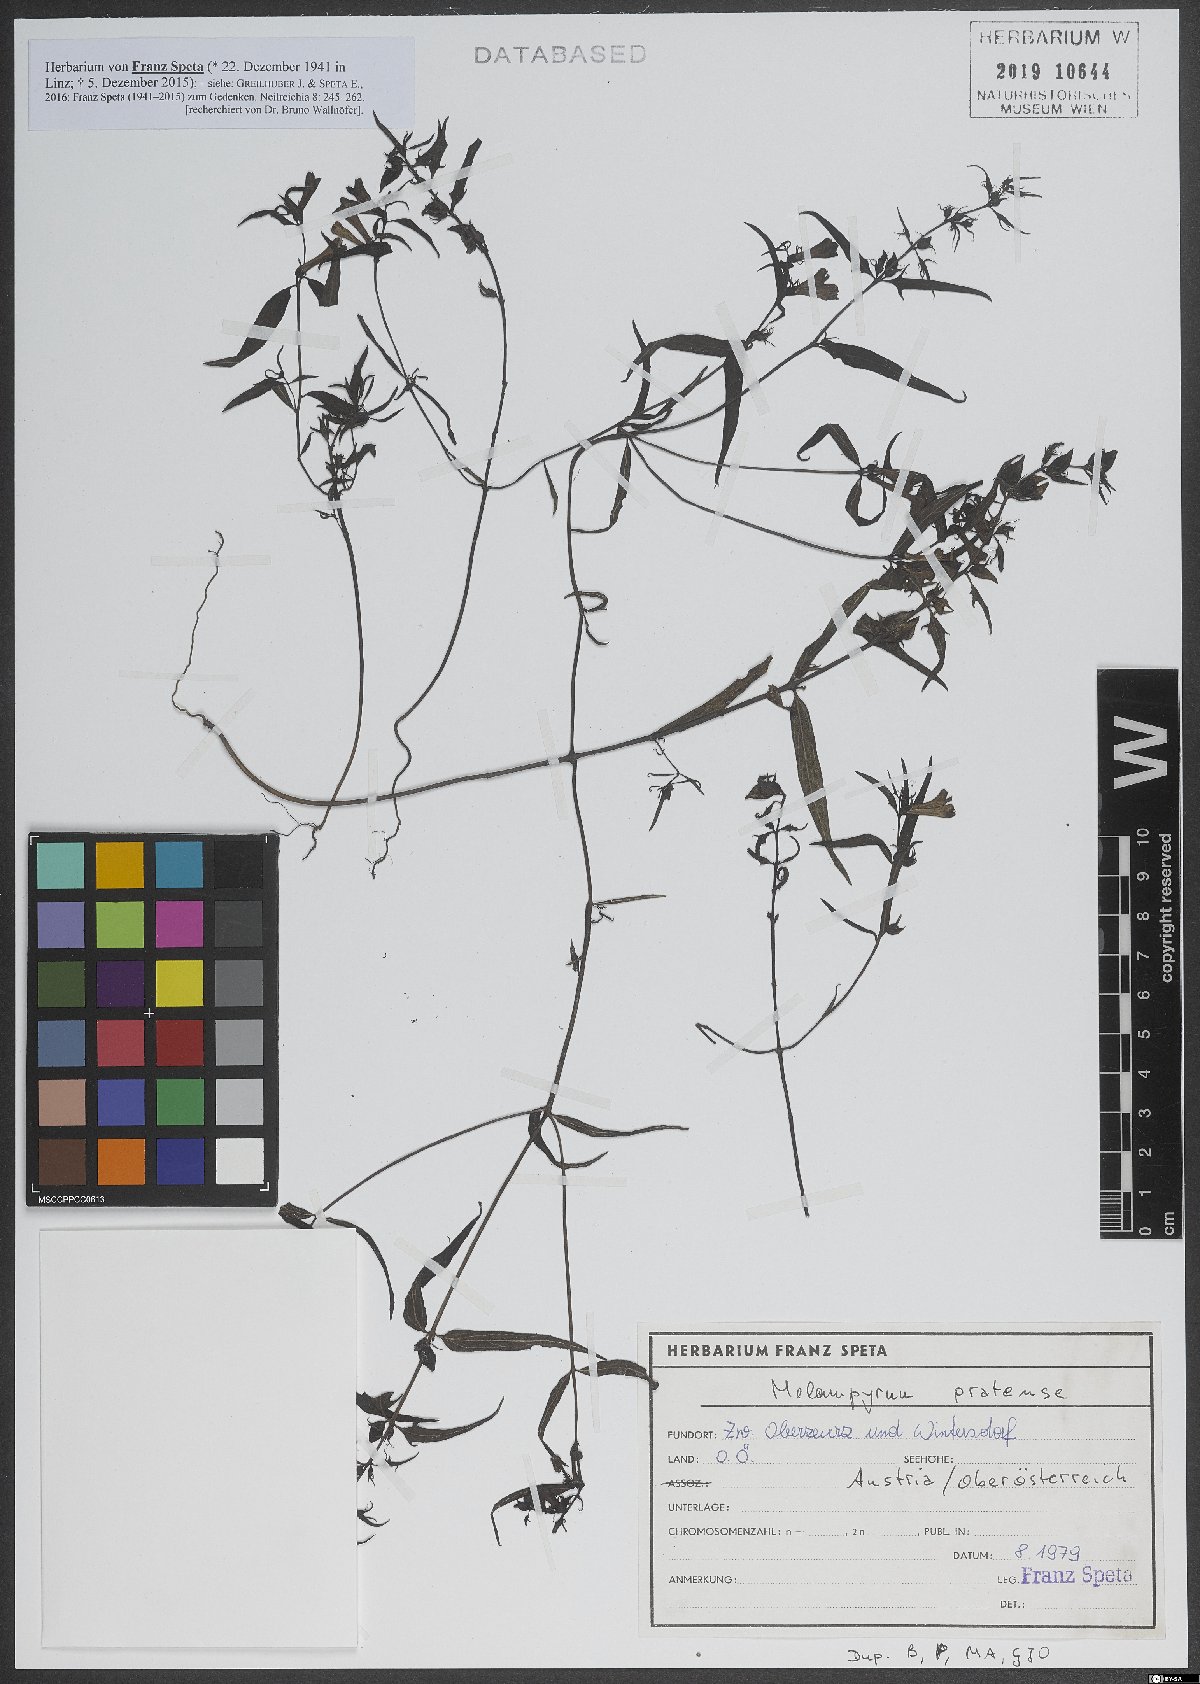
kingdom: Plantae
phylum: Tracheophyta
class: Magnoliopsida
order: Lamiales
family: Orobanchaceae
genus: Melampyrum
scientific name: Melampyrum pratense
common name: Common cow-wheat
